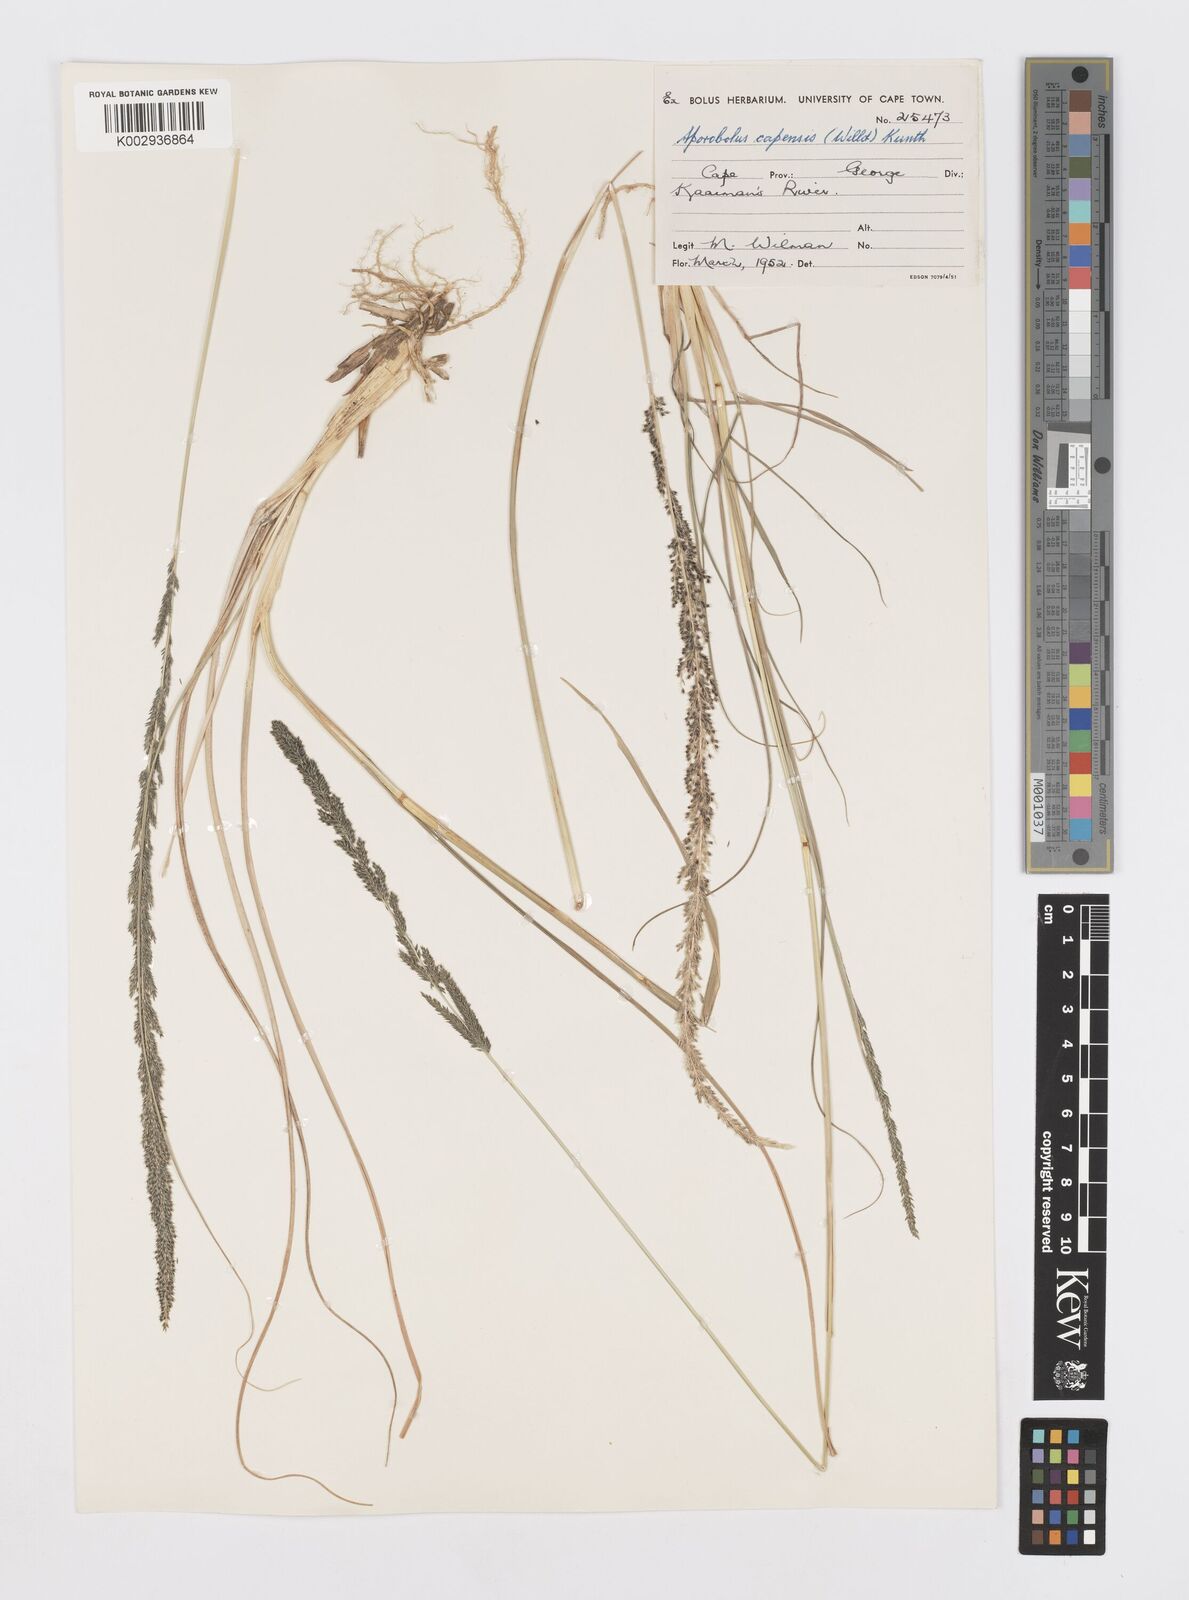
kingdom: Plantae
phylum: Tracheophyta
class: Liliopsida
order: Poales
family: Poaceae
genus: Sporobolus
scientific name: Sporobolus africanus
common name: African dropseed
